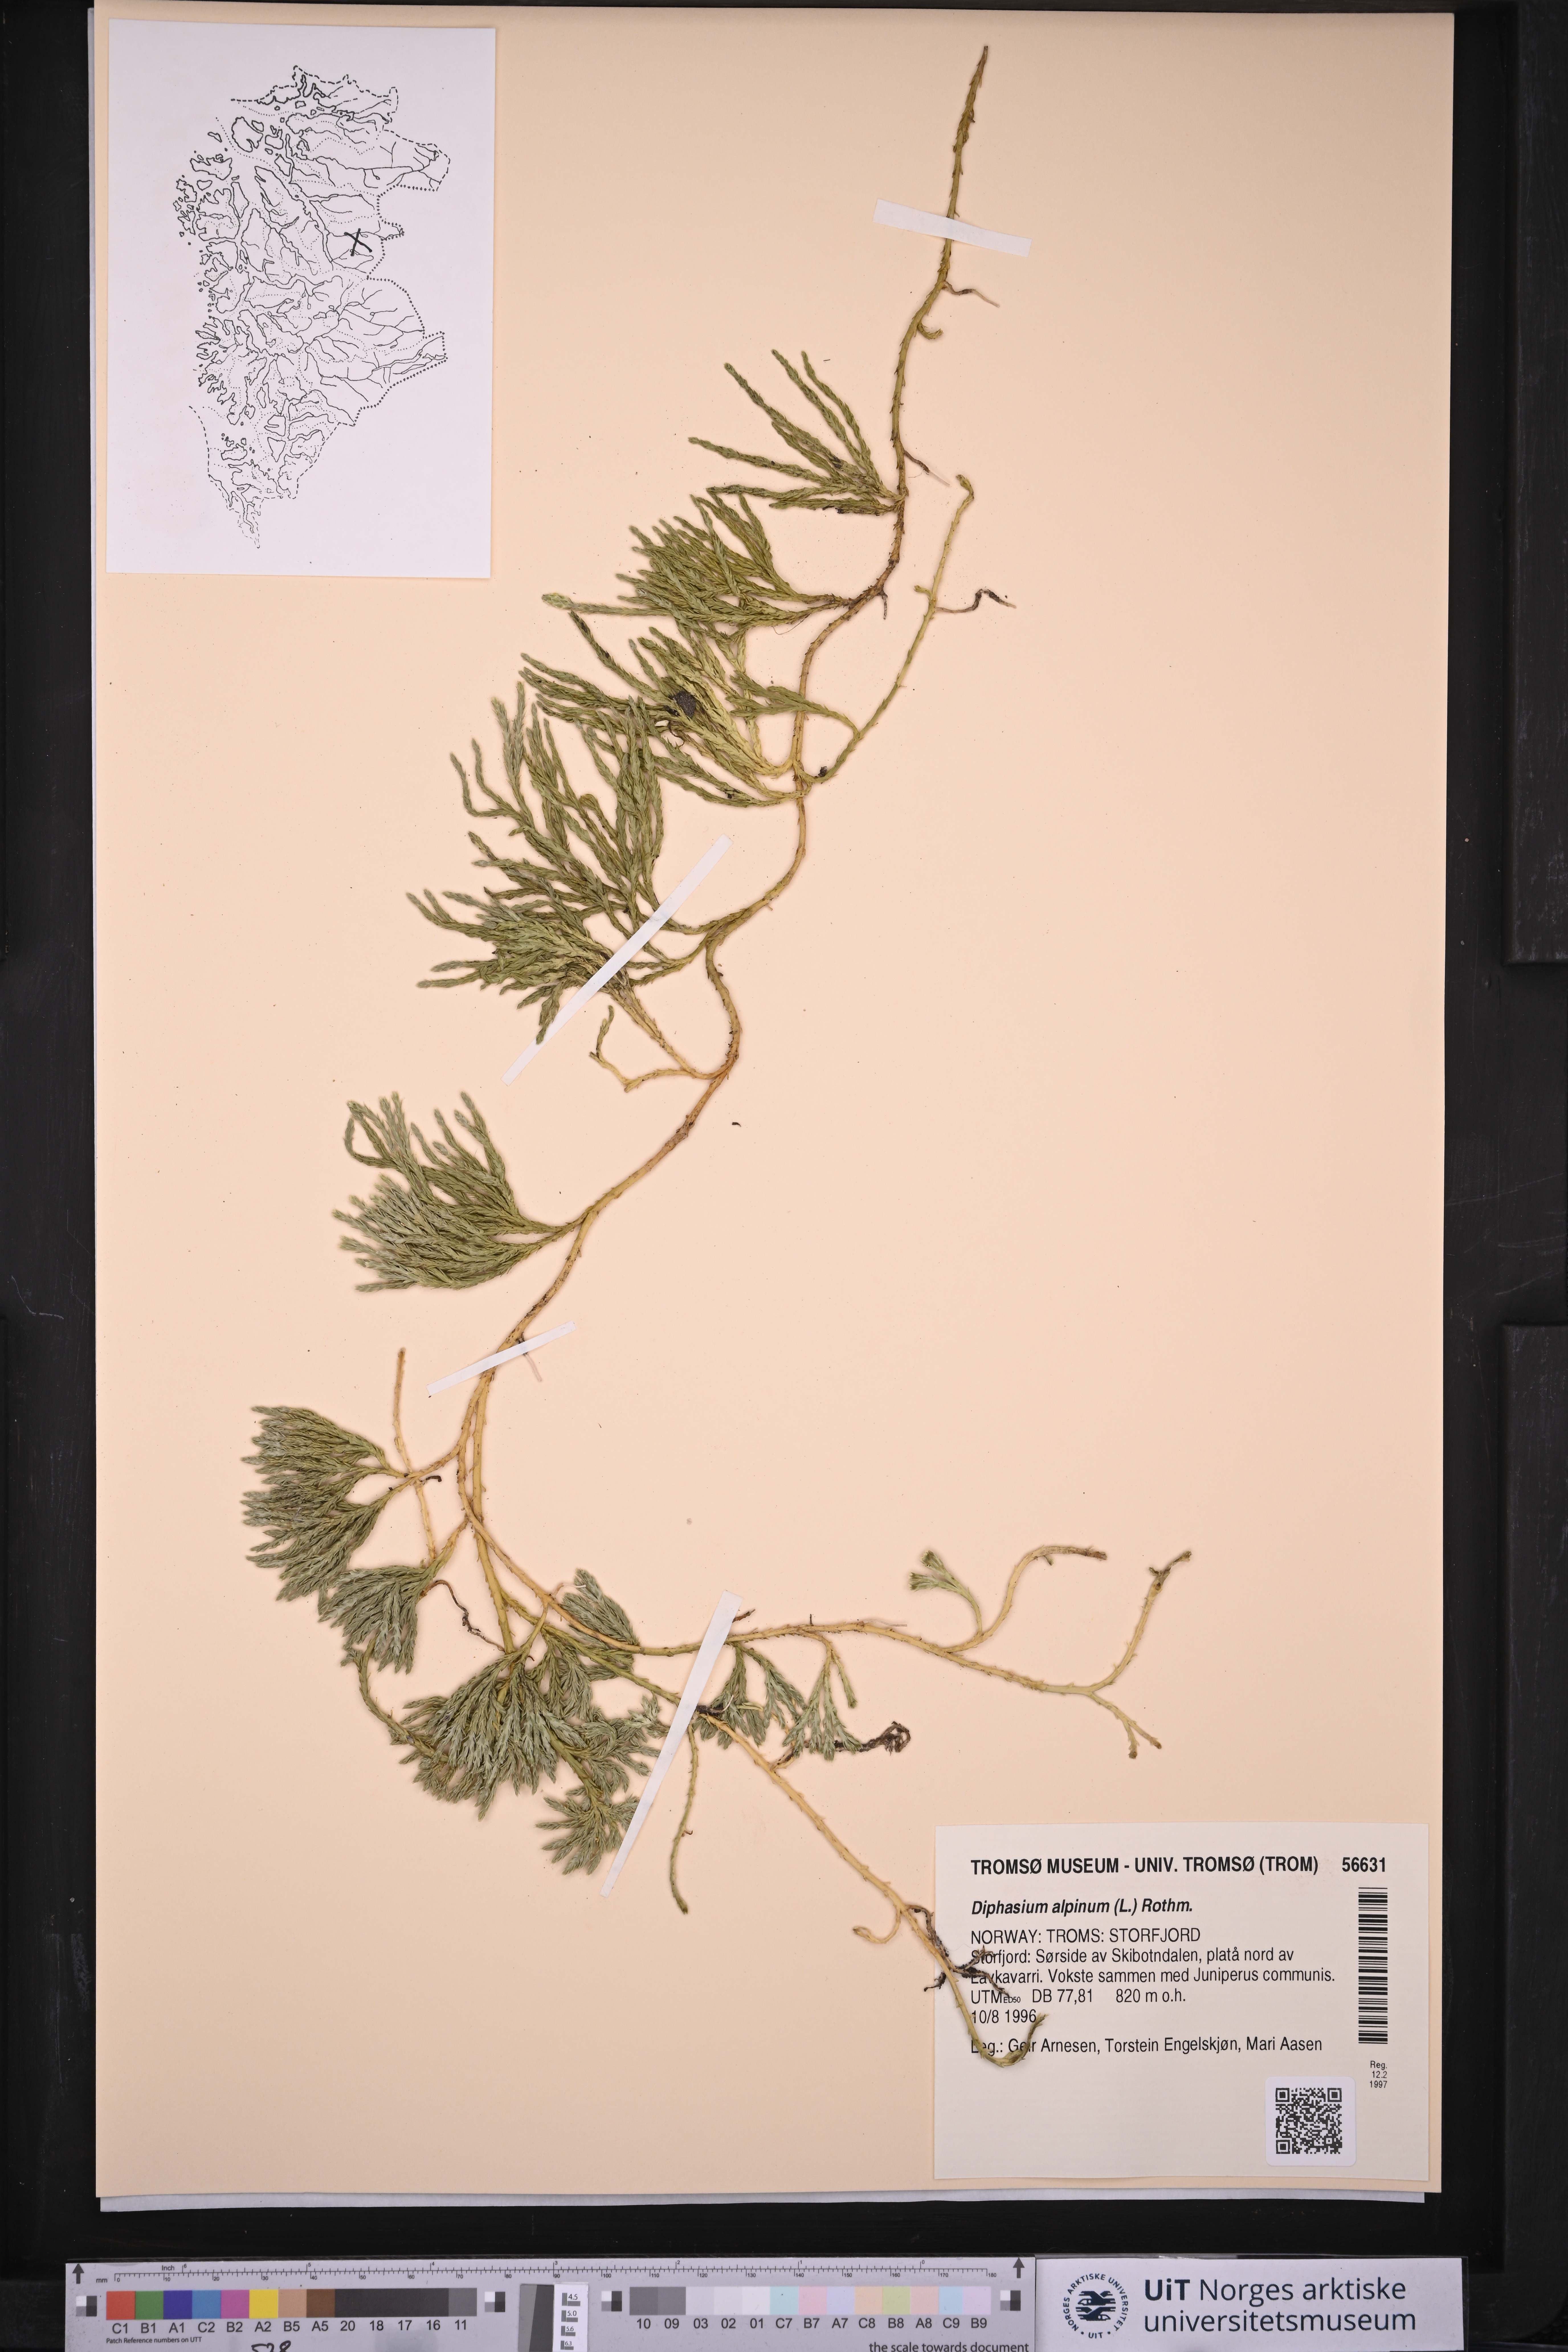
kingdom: Plantae
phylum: Tracheophyta
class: Lycopodiopsida
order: Lycopodiales
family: Lycopodiaceae
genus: Diphasiastrum
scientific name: Diphasiastrum alpinum
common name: Alpine clubmoss
